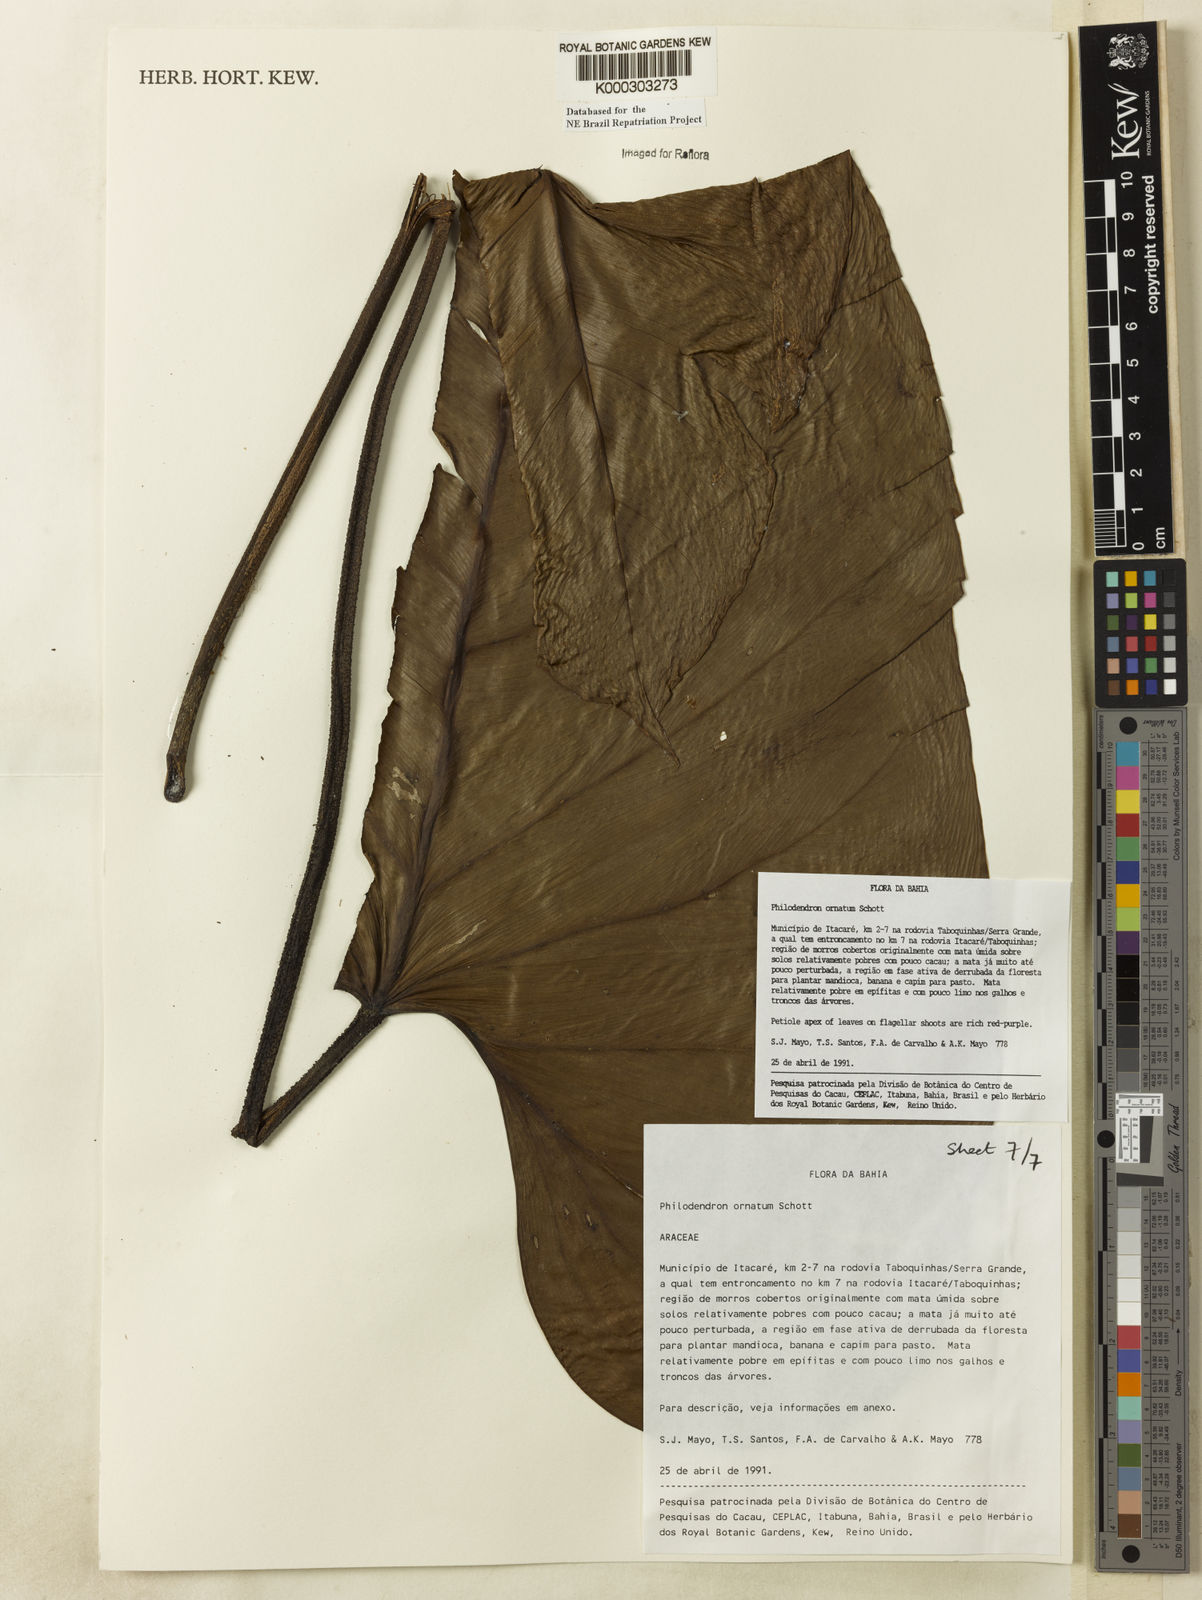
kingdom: Plantae
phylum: Tracheophyta
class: Liliopsida
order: Alismatales
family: Araceae
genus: Philodendron
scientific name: Philodendron ornatum
